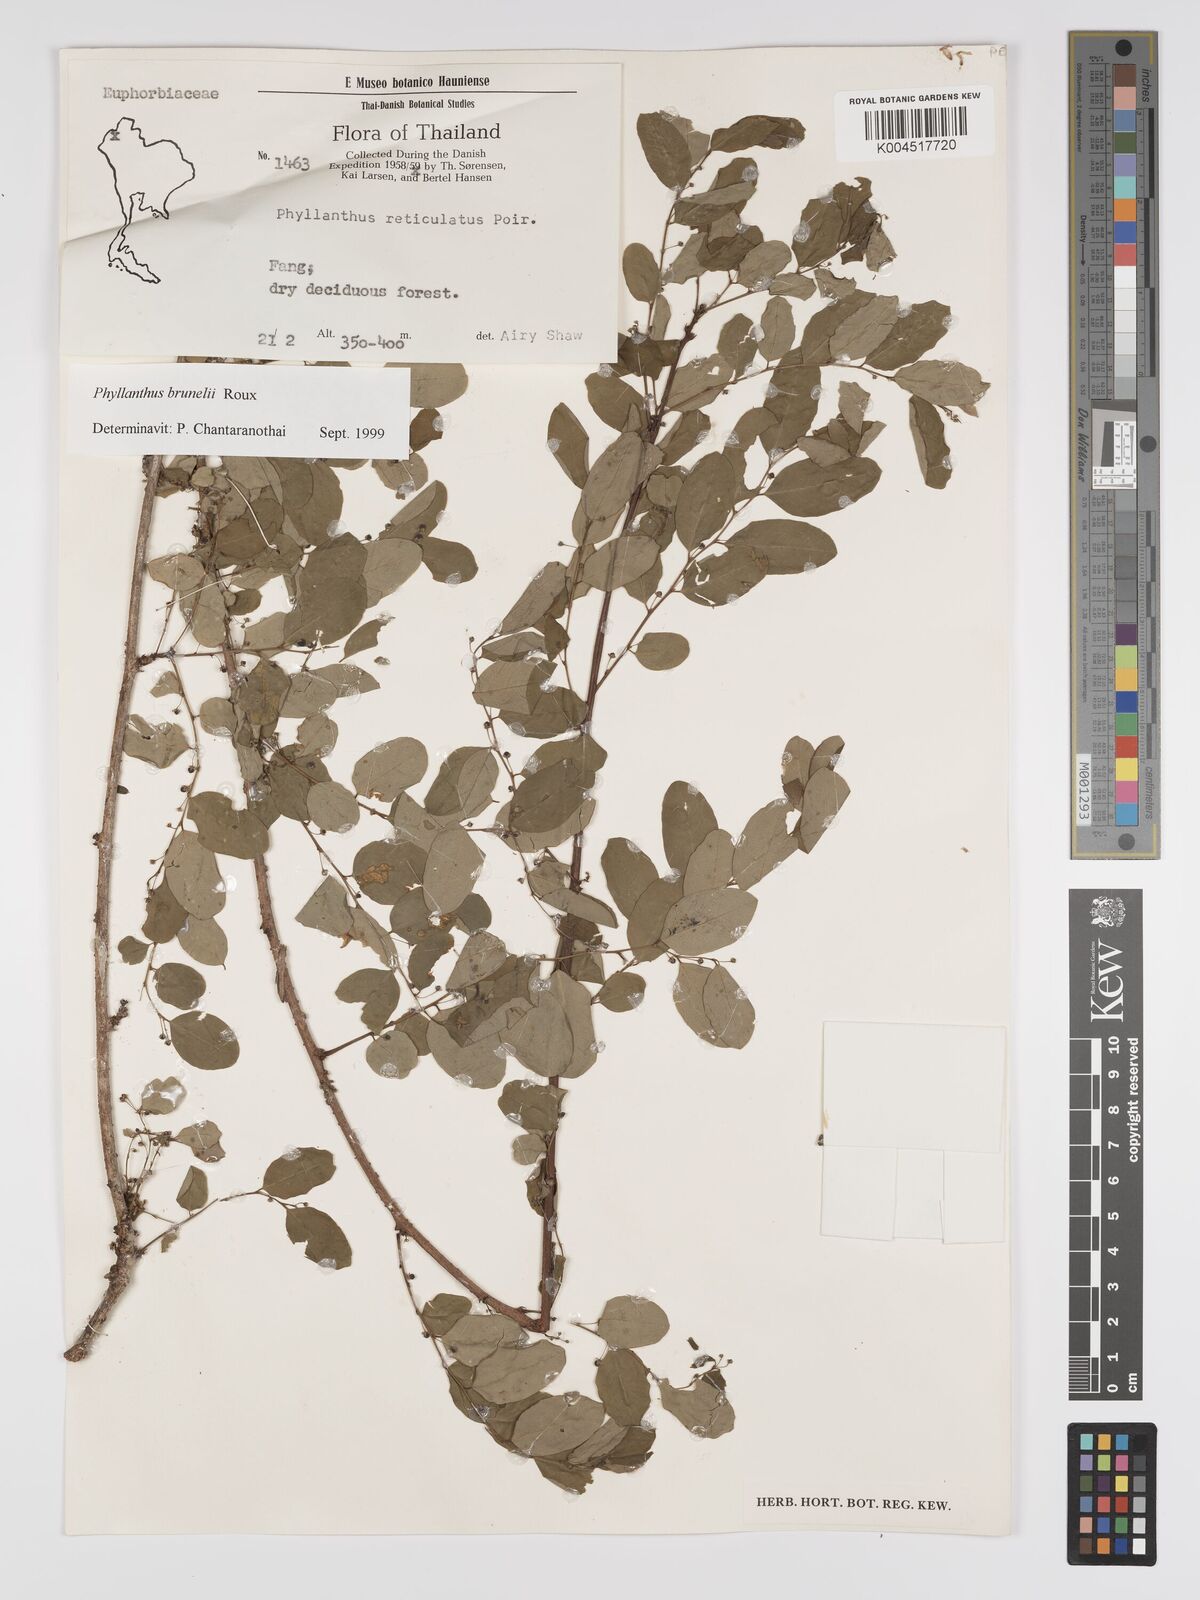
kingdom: Plantae
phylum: Tracheophyta
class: Magnoliopsida
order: Malpighiales
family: Phyllanthaceae
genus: Phyllanthus
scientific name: Phyllanthus microcarpus
